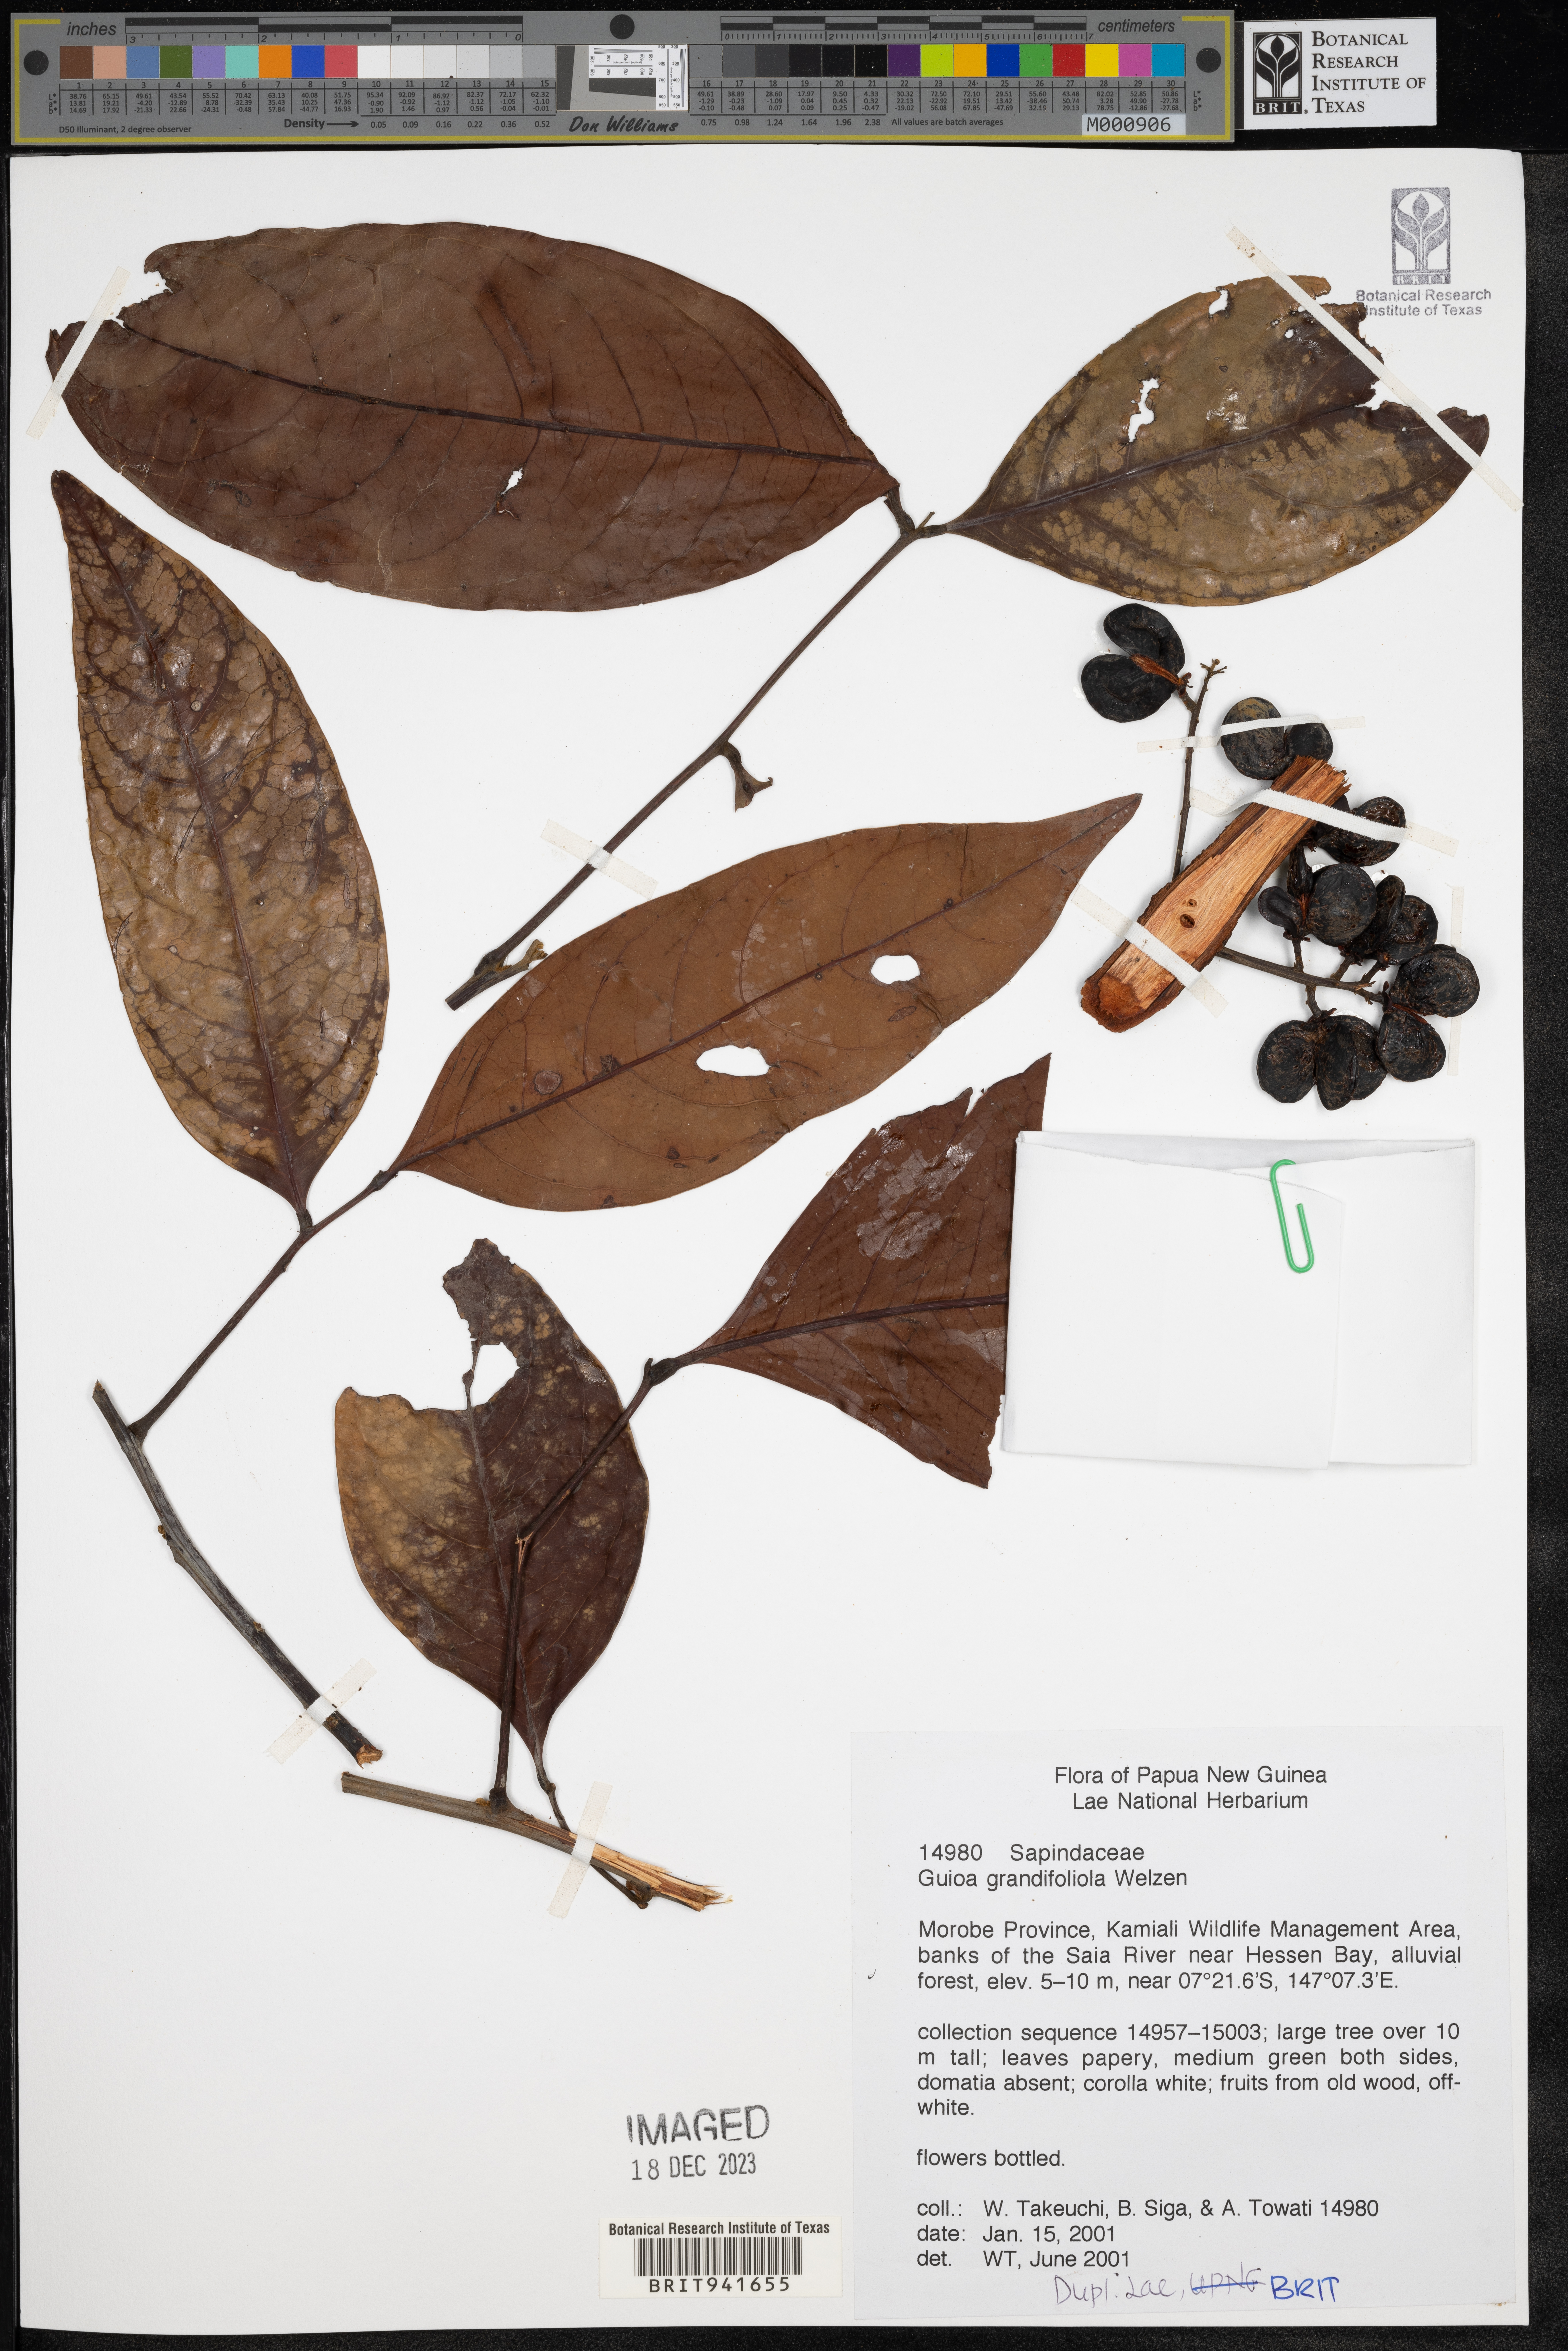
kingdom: Plantae
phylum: Tracheophyta
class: Magnoliopsida
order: Sapindales
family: Sapindaceae
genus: Guioa
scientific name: Guioa
